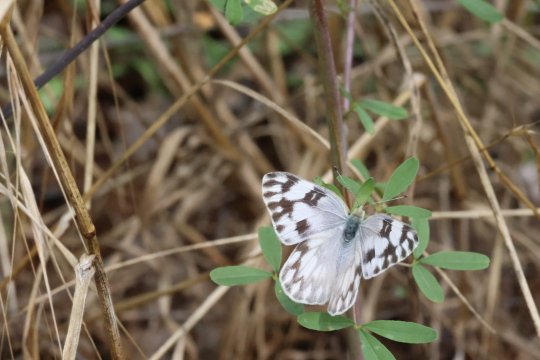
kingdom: Animalia
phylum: Arthropoda
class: Insecta
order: Lepidoptera
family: Pieridae
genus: Pontia
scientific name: Pontia protodice
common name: Checkered White
